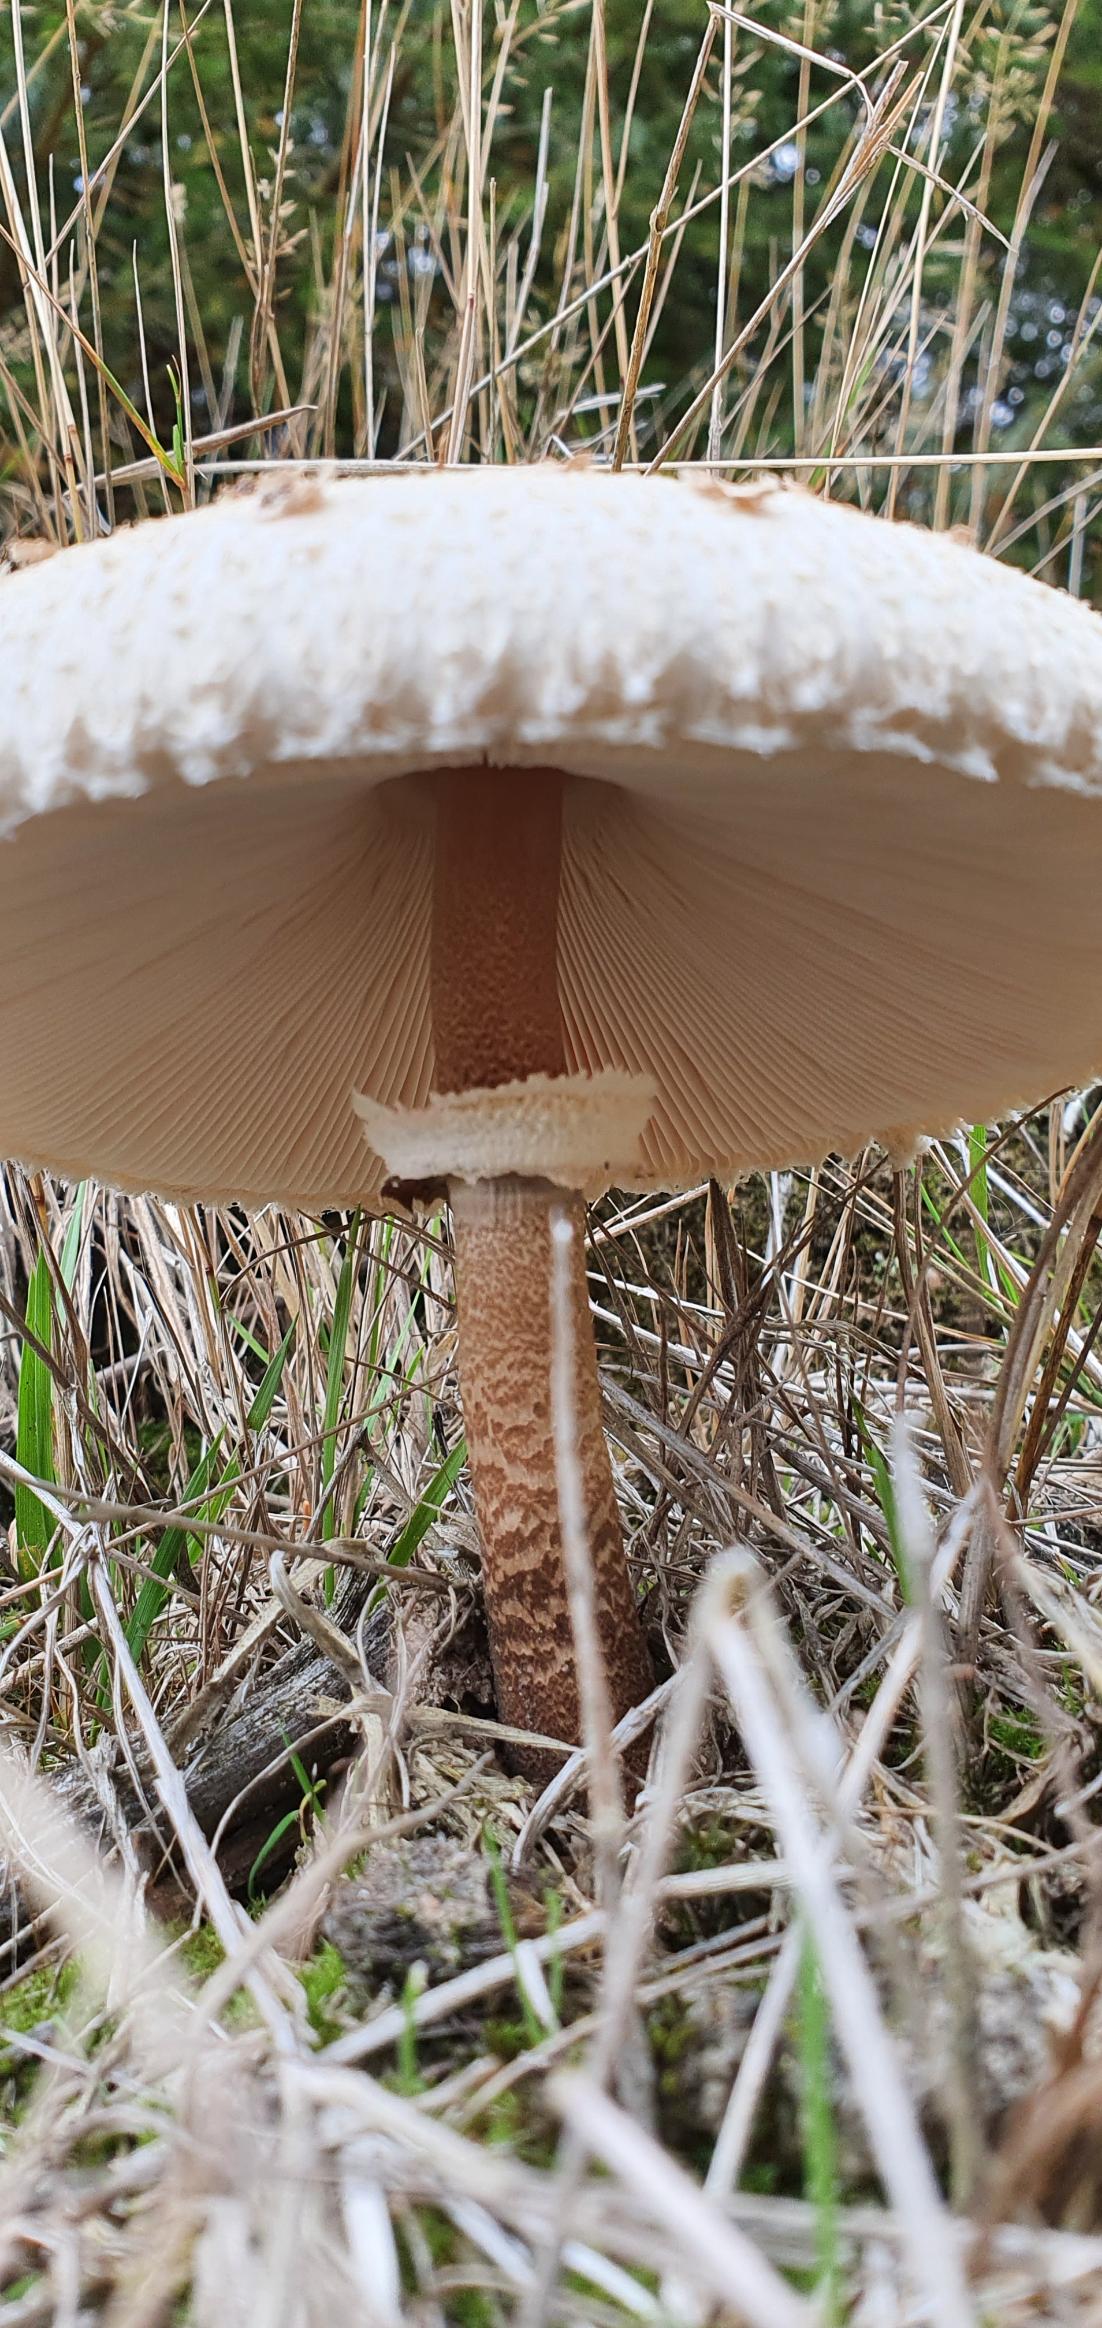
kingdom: Fungi
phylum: Basidiomycota
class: Agaricomycetes
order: Agaricales
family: Agaricaceae
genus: Macrolepiota
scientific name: Macrolepiota procera
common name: Stor kæmpeparasolhat
